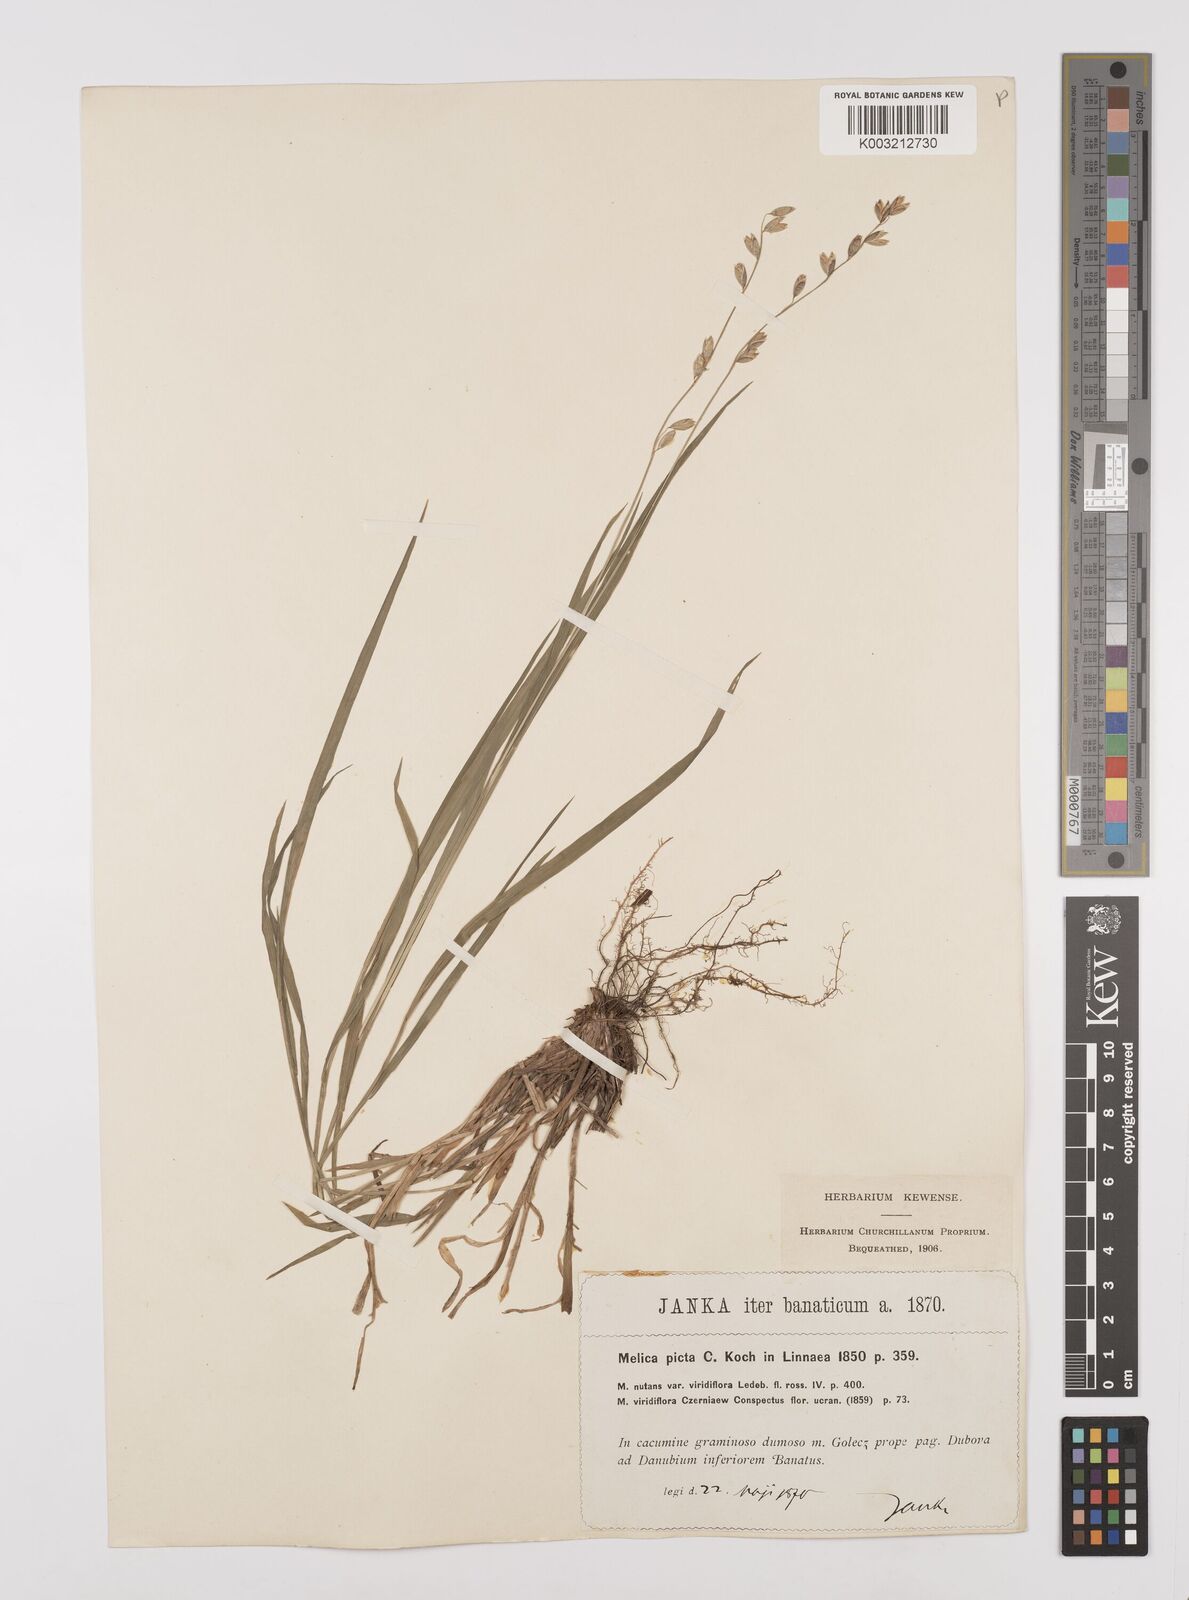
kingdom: Plantae
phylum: Tracheophyta
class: Liliopsida
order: Poales
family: Poaceae
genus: Melica
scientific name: Melica picta
